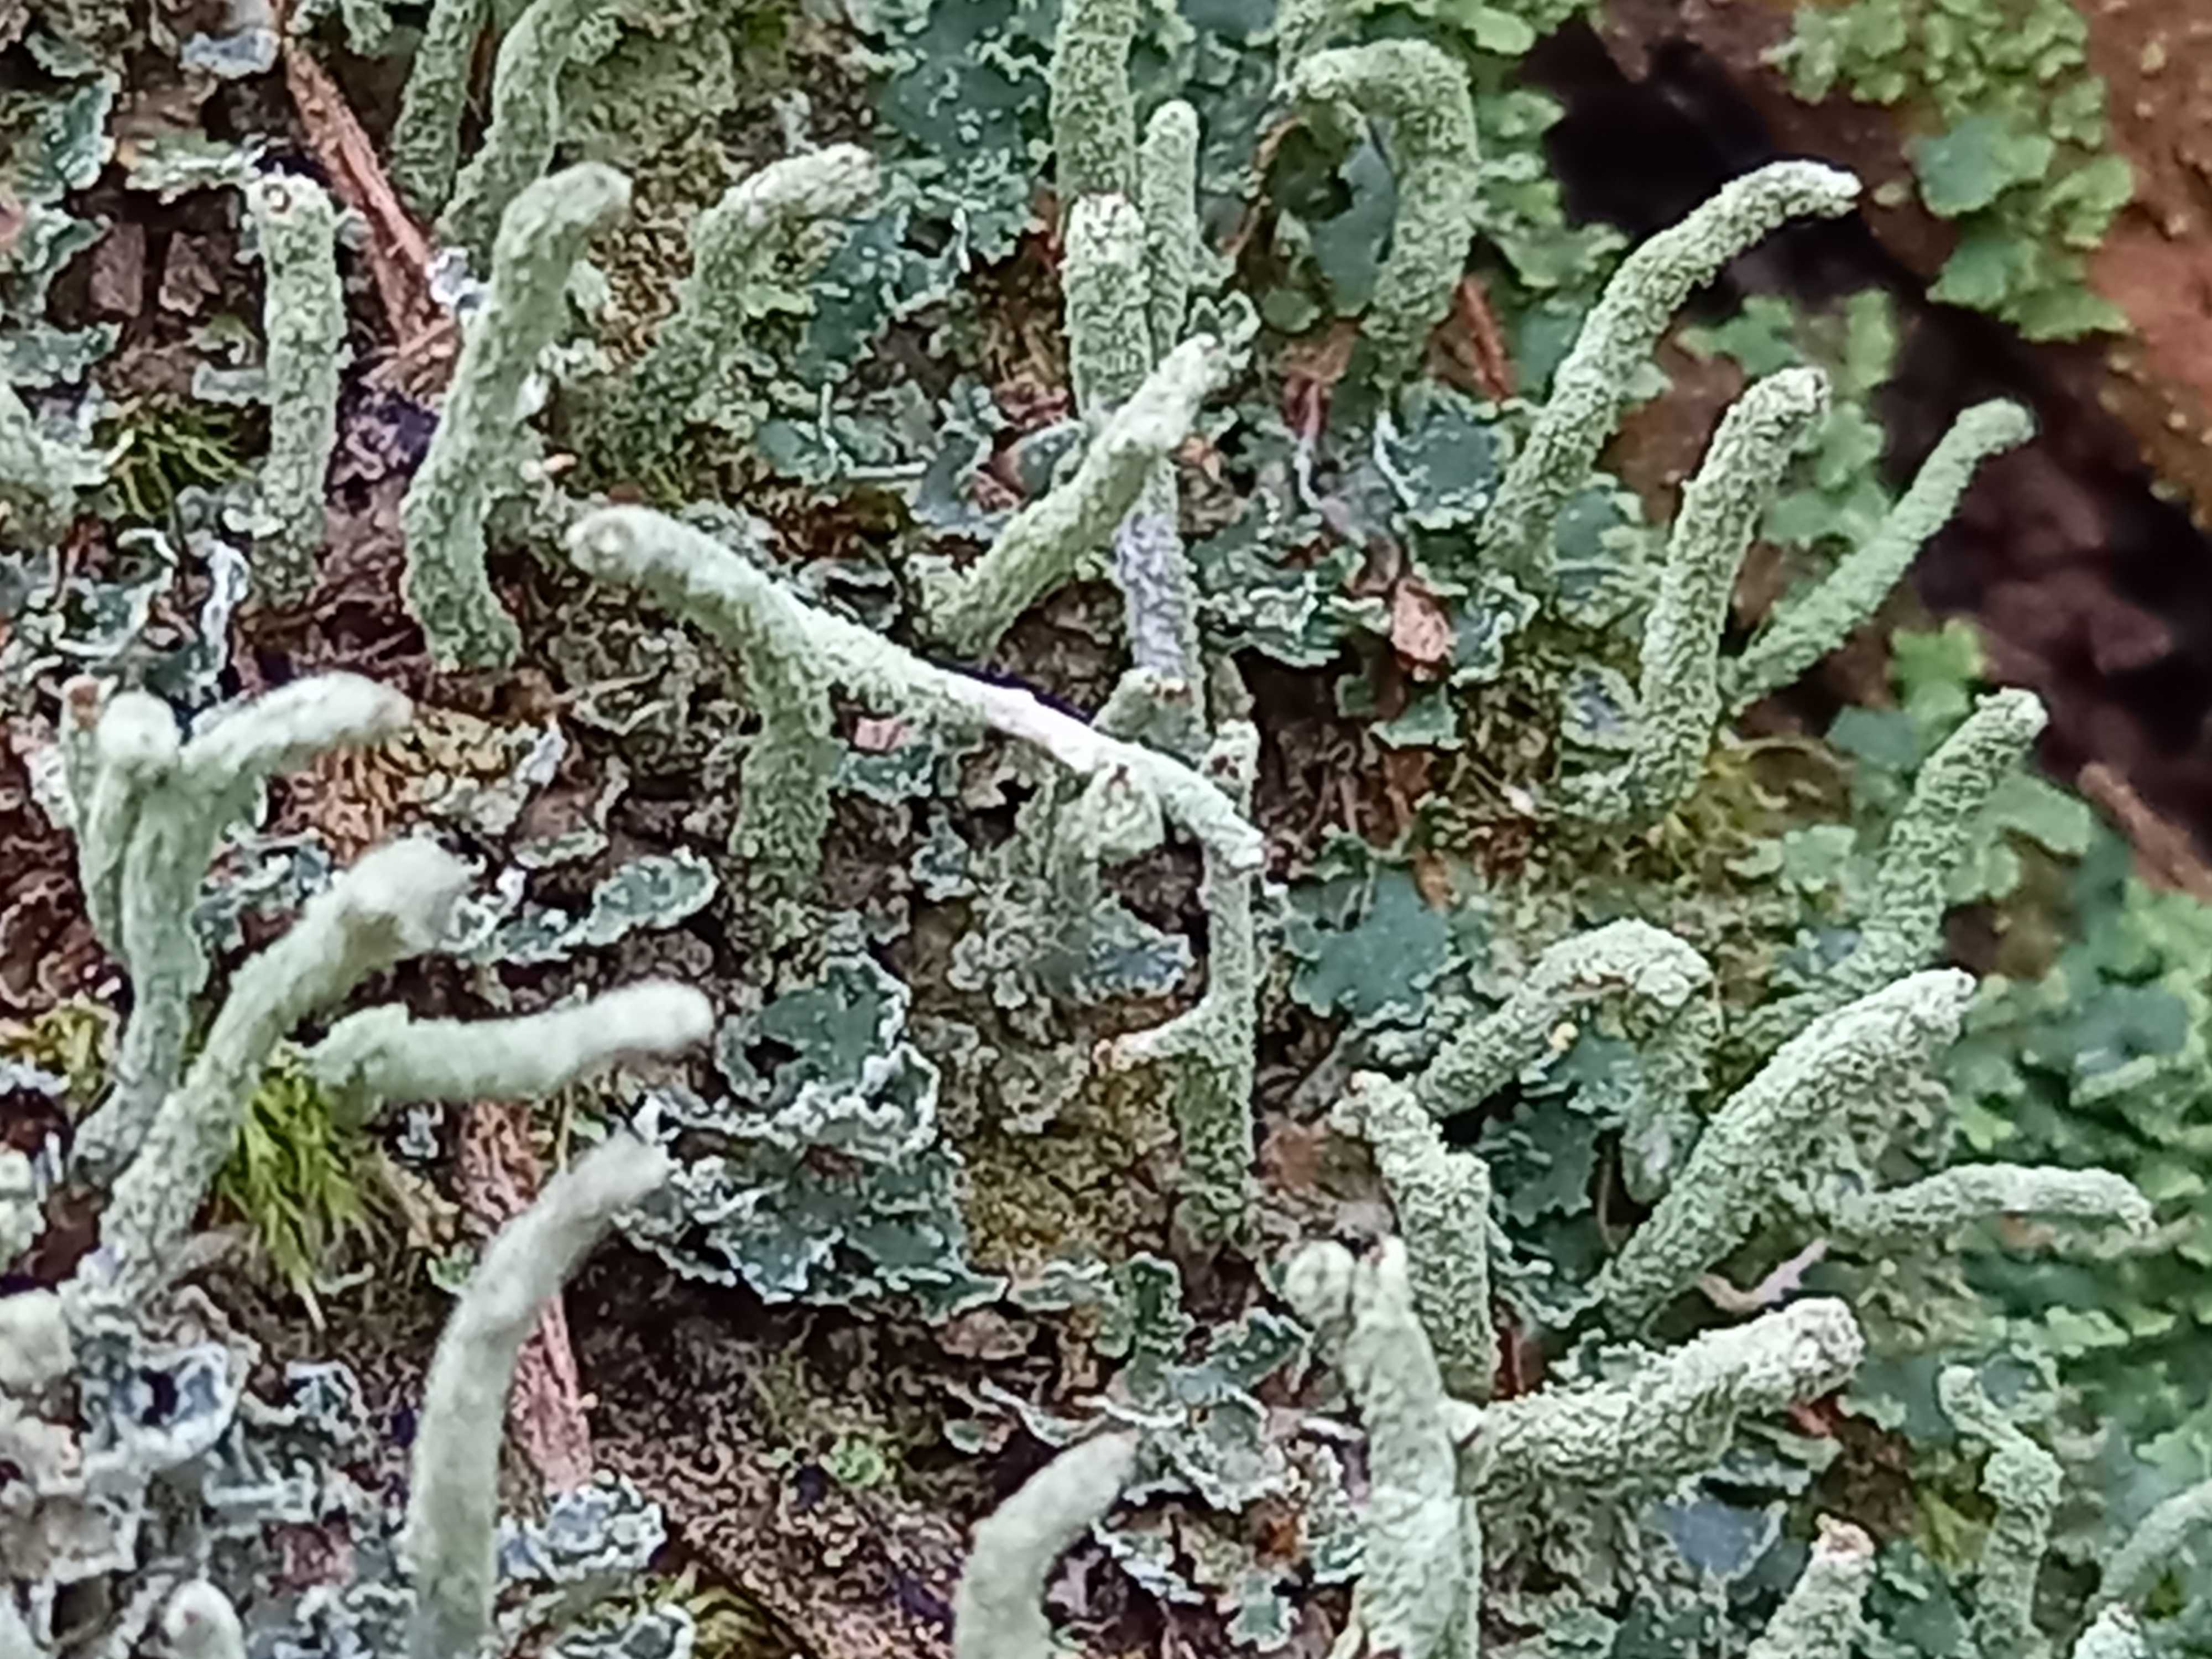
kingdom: Fungi
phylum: Ascomycota
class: Lecanoromycetes
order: Lecanorales
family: Cladoniaceae
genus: Cladonia
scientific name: Cladonia coniocraea
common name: træfods-bægerlav
